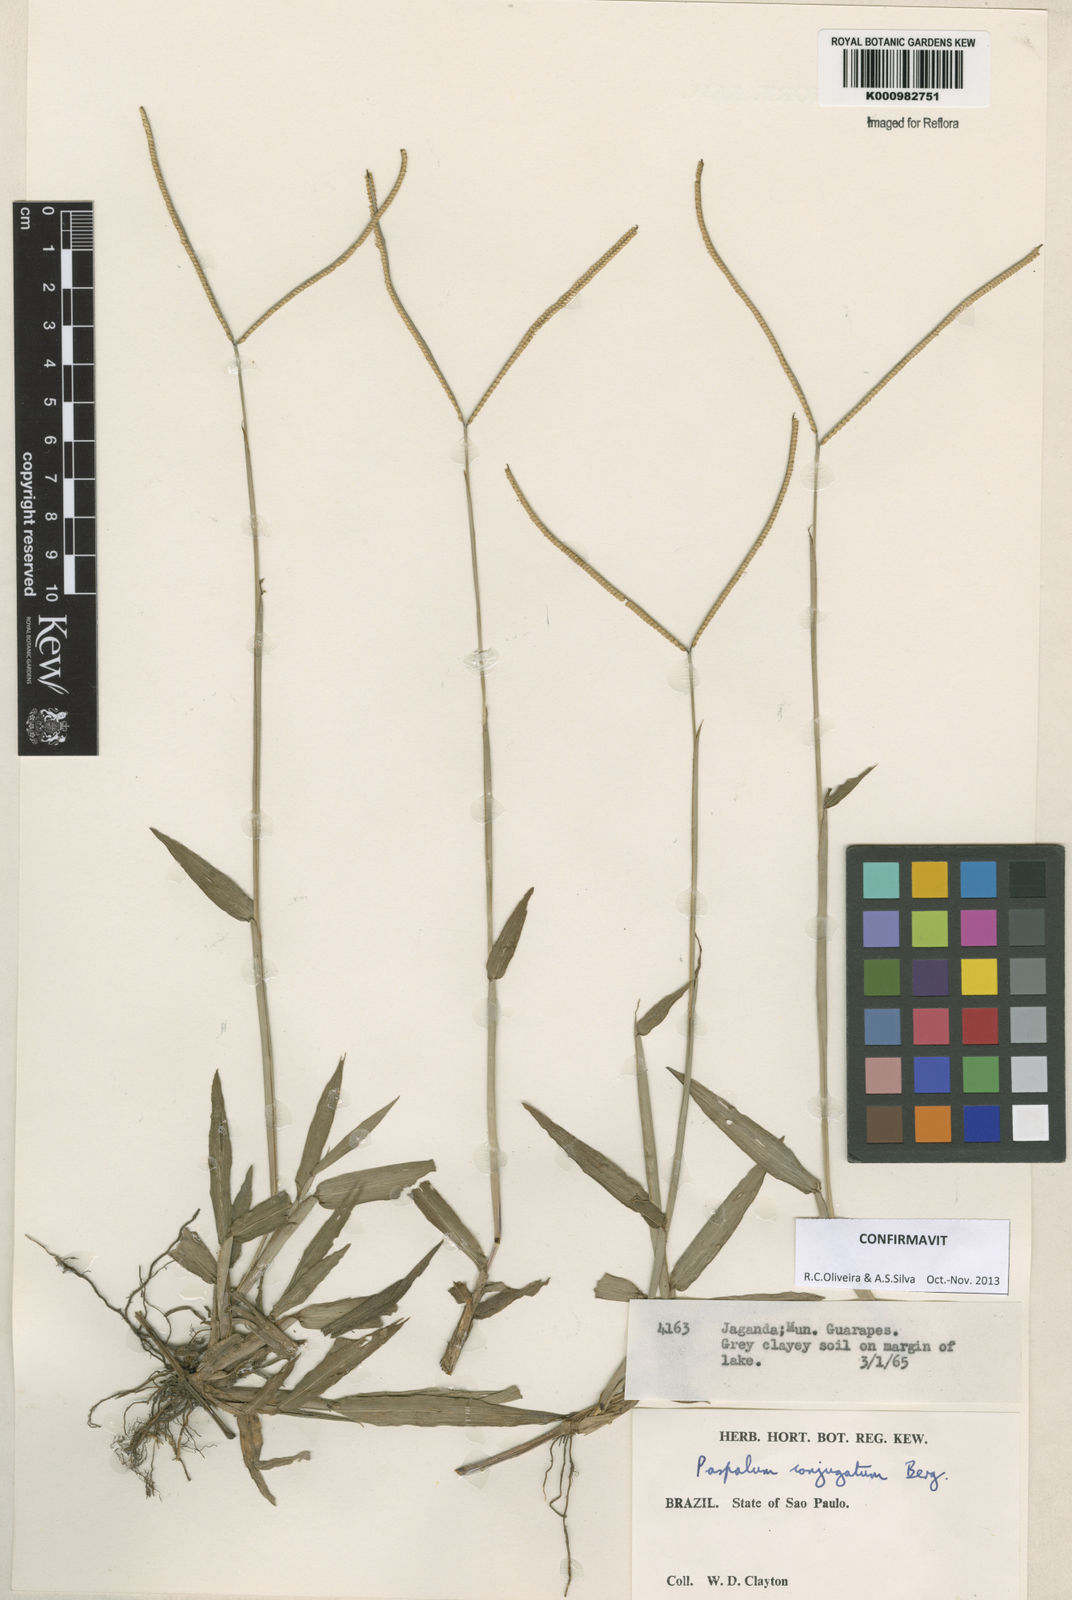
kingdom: Plantae
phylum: Tracheophyta
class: Liliopsida
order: Poales
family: Poaceae
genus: Paspalum
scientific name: Paspalum conjugatum
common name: Hilograss
